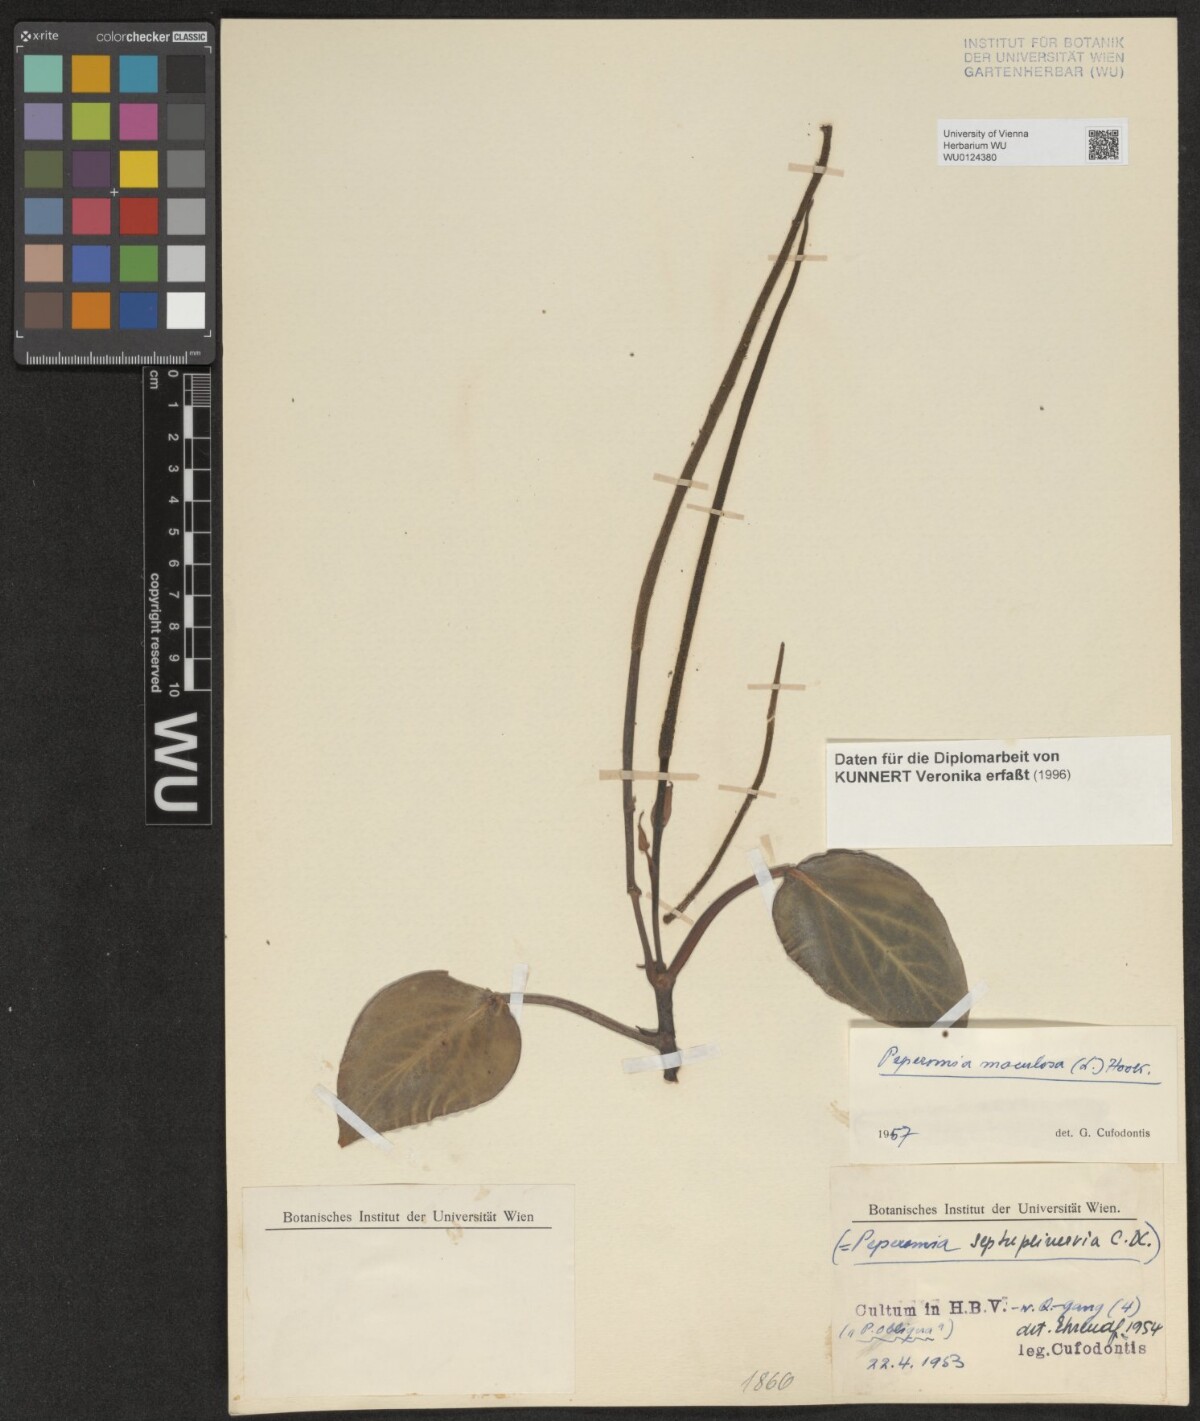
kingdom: Plantae
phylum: Tracheophyta
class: Magnoliopsida
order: Piperales
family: Piperaceae
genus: Peperomia
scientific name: Peperomia maculosa
